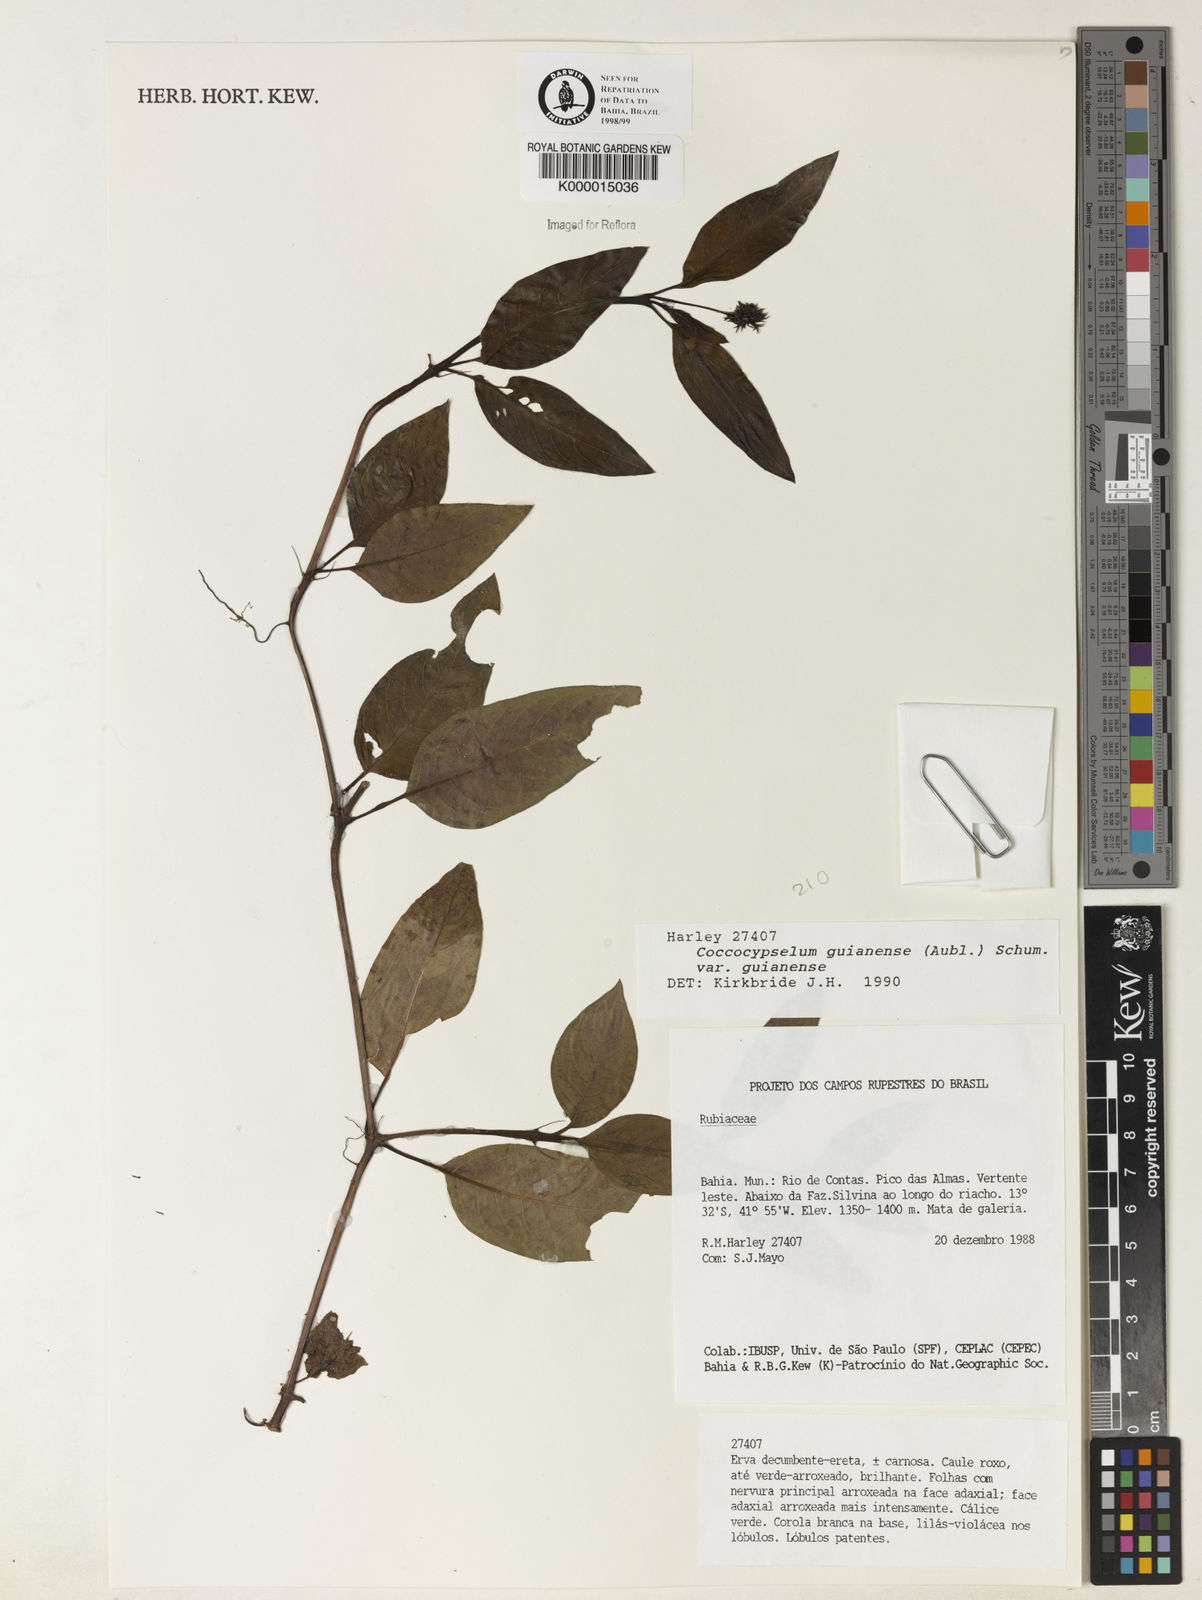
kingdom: Plantae
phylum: Tracheophyta
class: Magnoliopsida
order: Gentianales
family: Rubiaceae
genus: Coccocypselum
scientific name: Coccocypselum guianense
